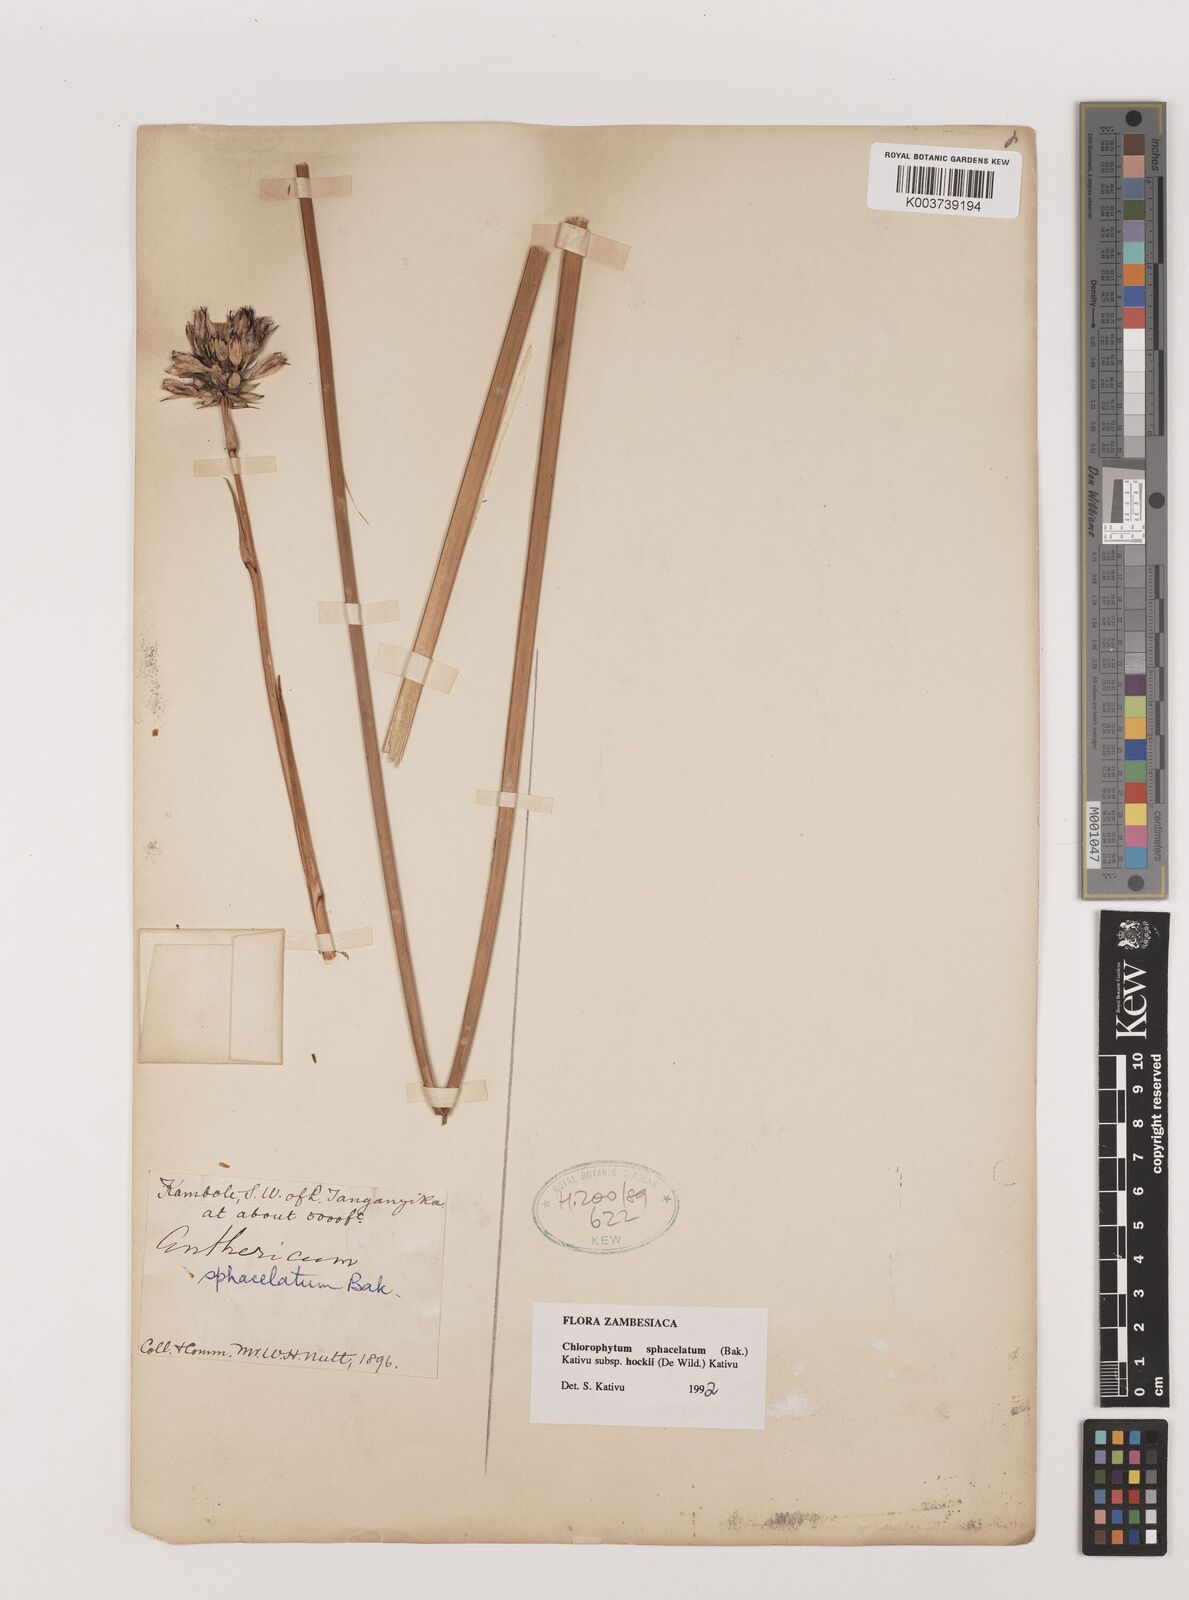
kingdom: Plantae
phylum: Tracheophyta
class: Liliopsida
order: Asparagales
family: Asparagaceae
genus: Chlorophytum
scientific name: Chlorophytum sphacelatum
